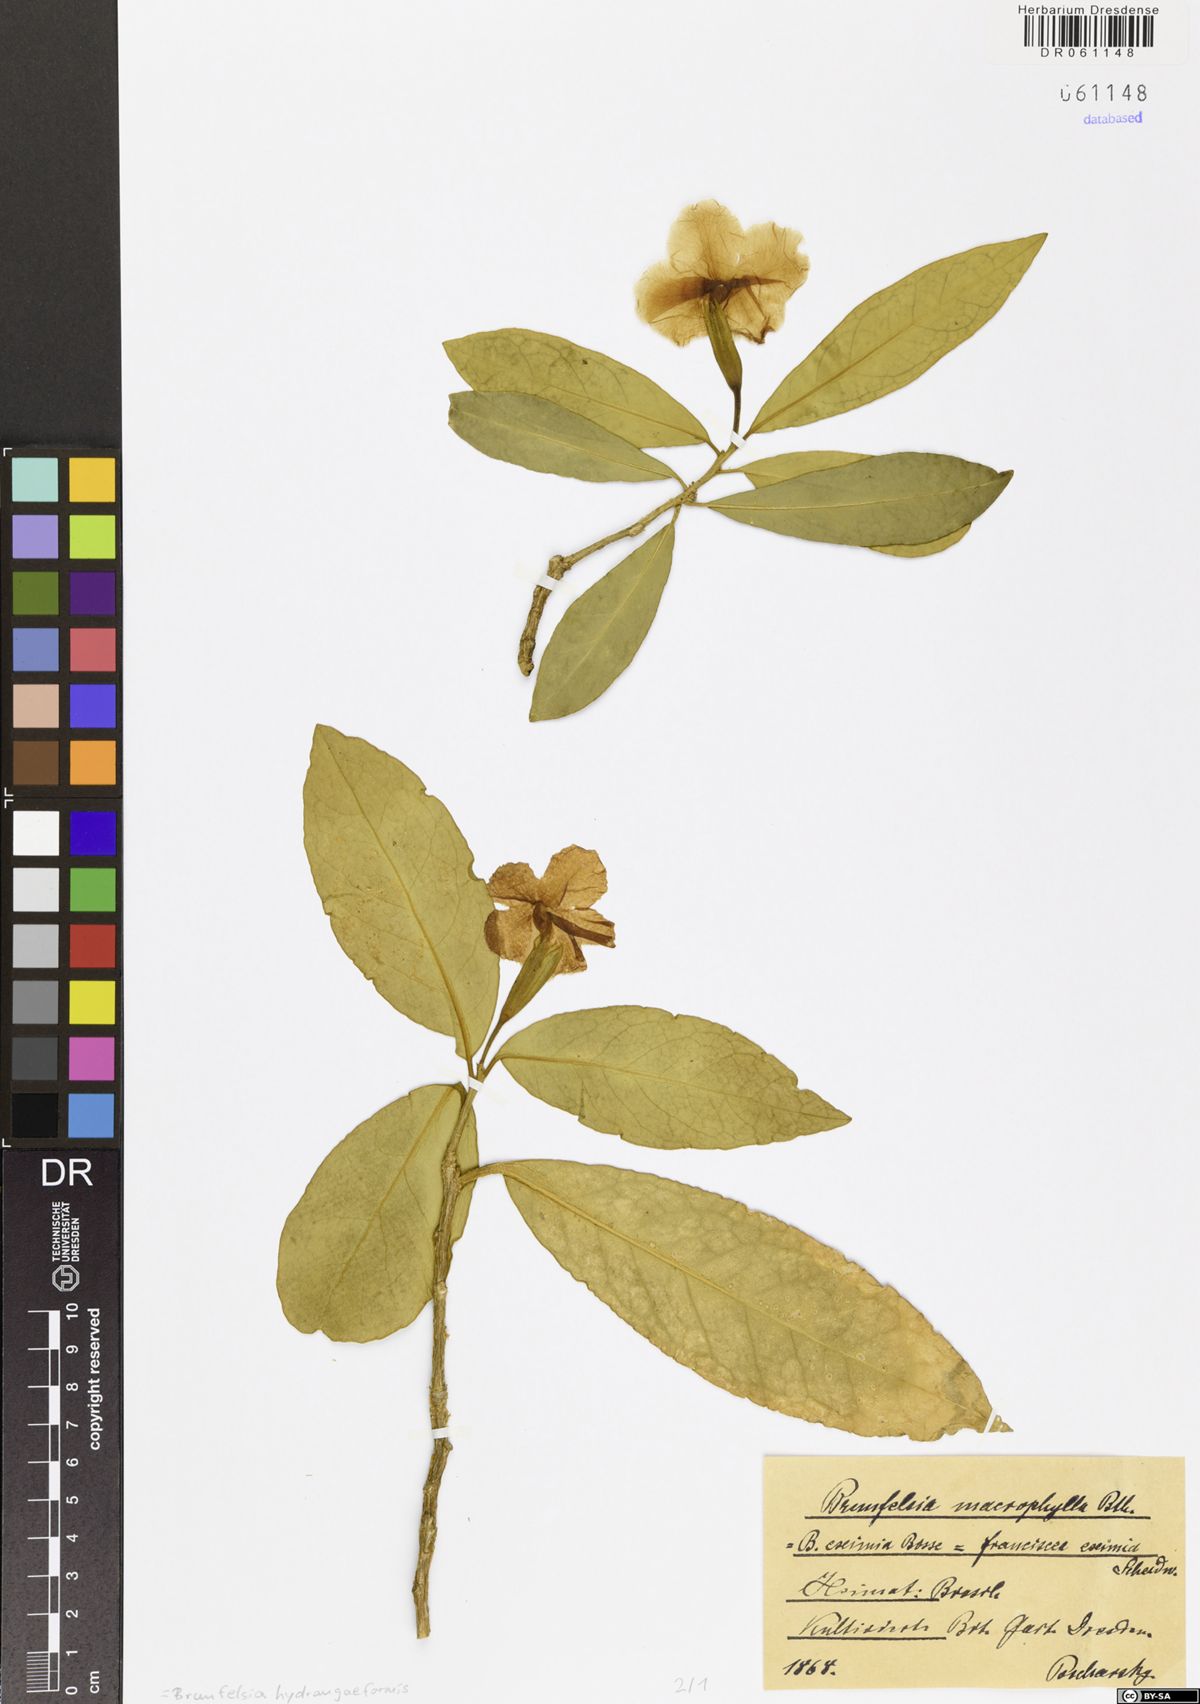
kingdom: Plantae
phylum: Tracheophyta
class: Magnoliopsida
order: Solanales
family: Solanaceae
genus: Brunfelsia
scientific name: Brunfelsia hydrangeiformis
